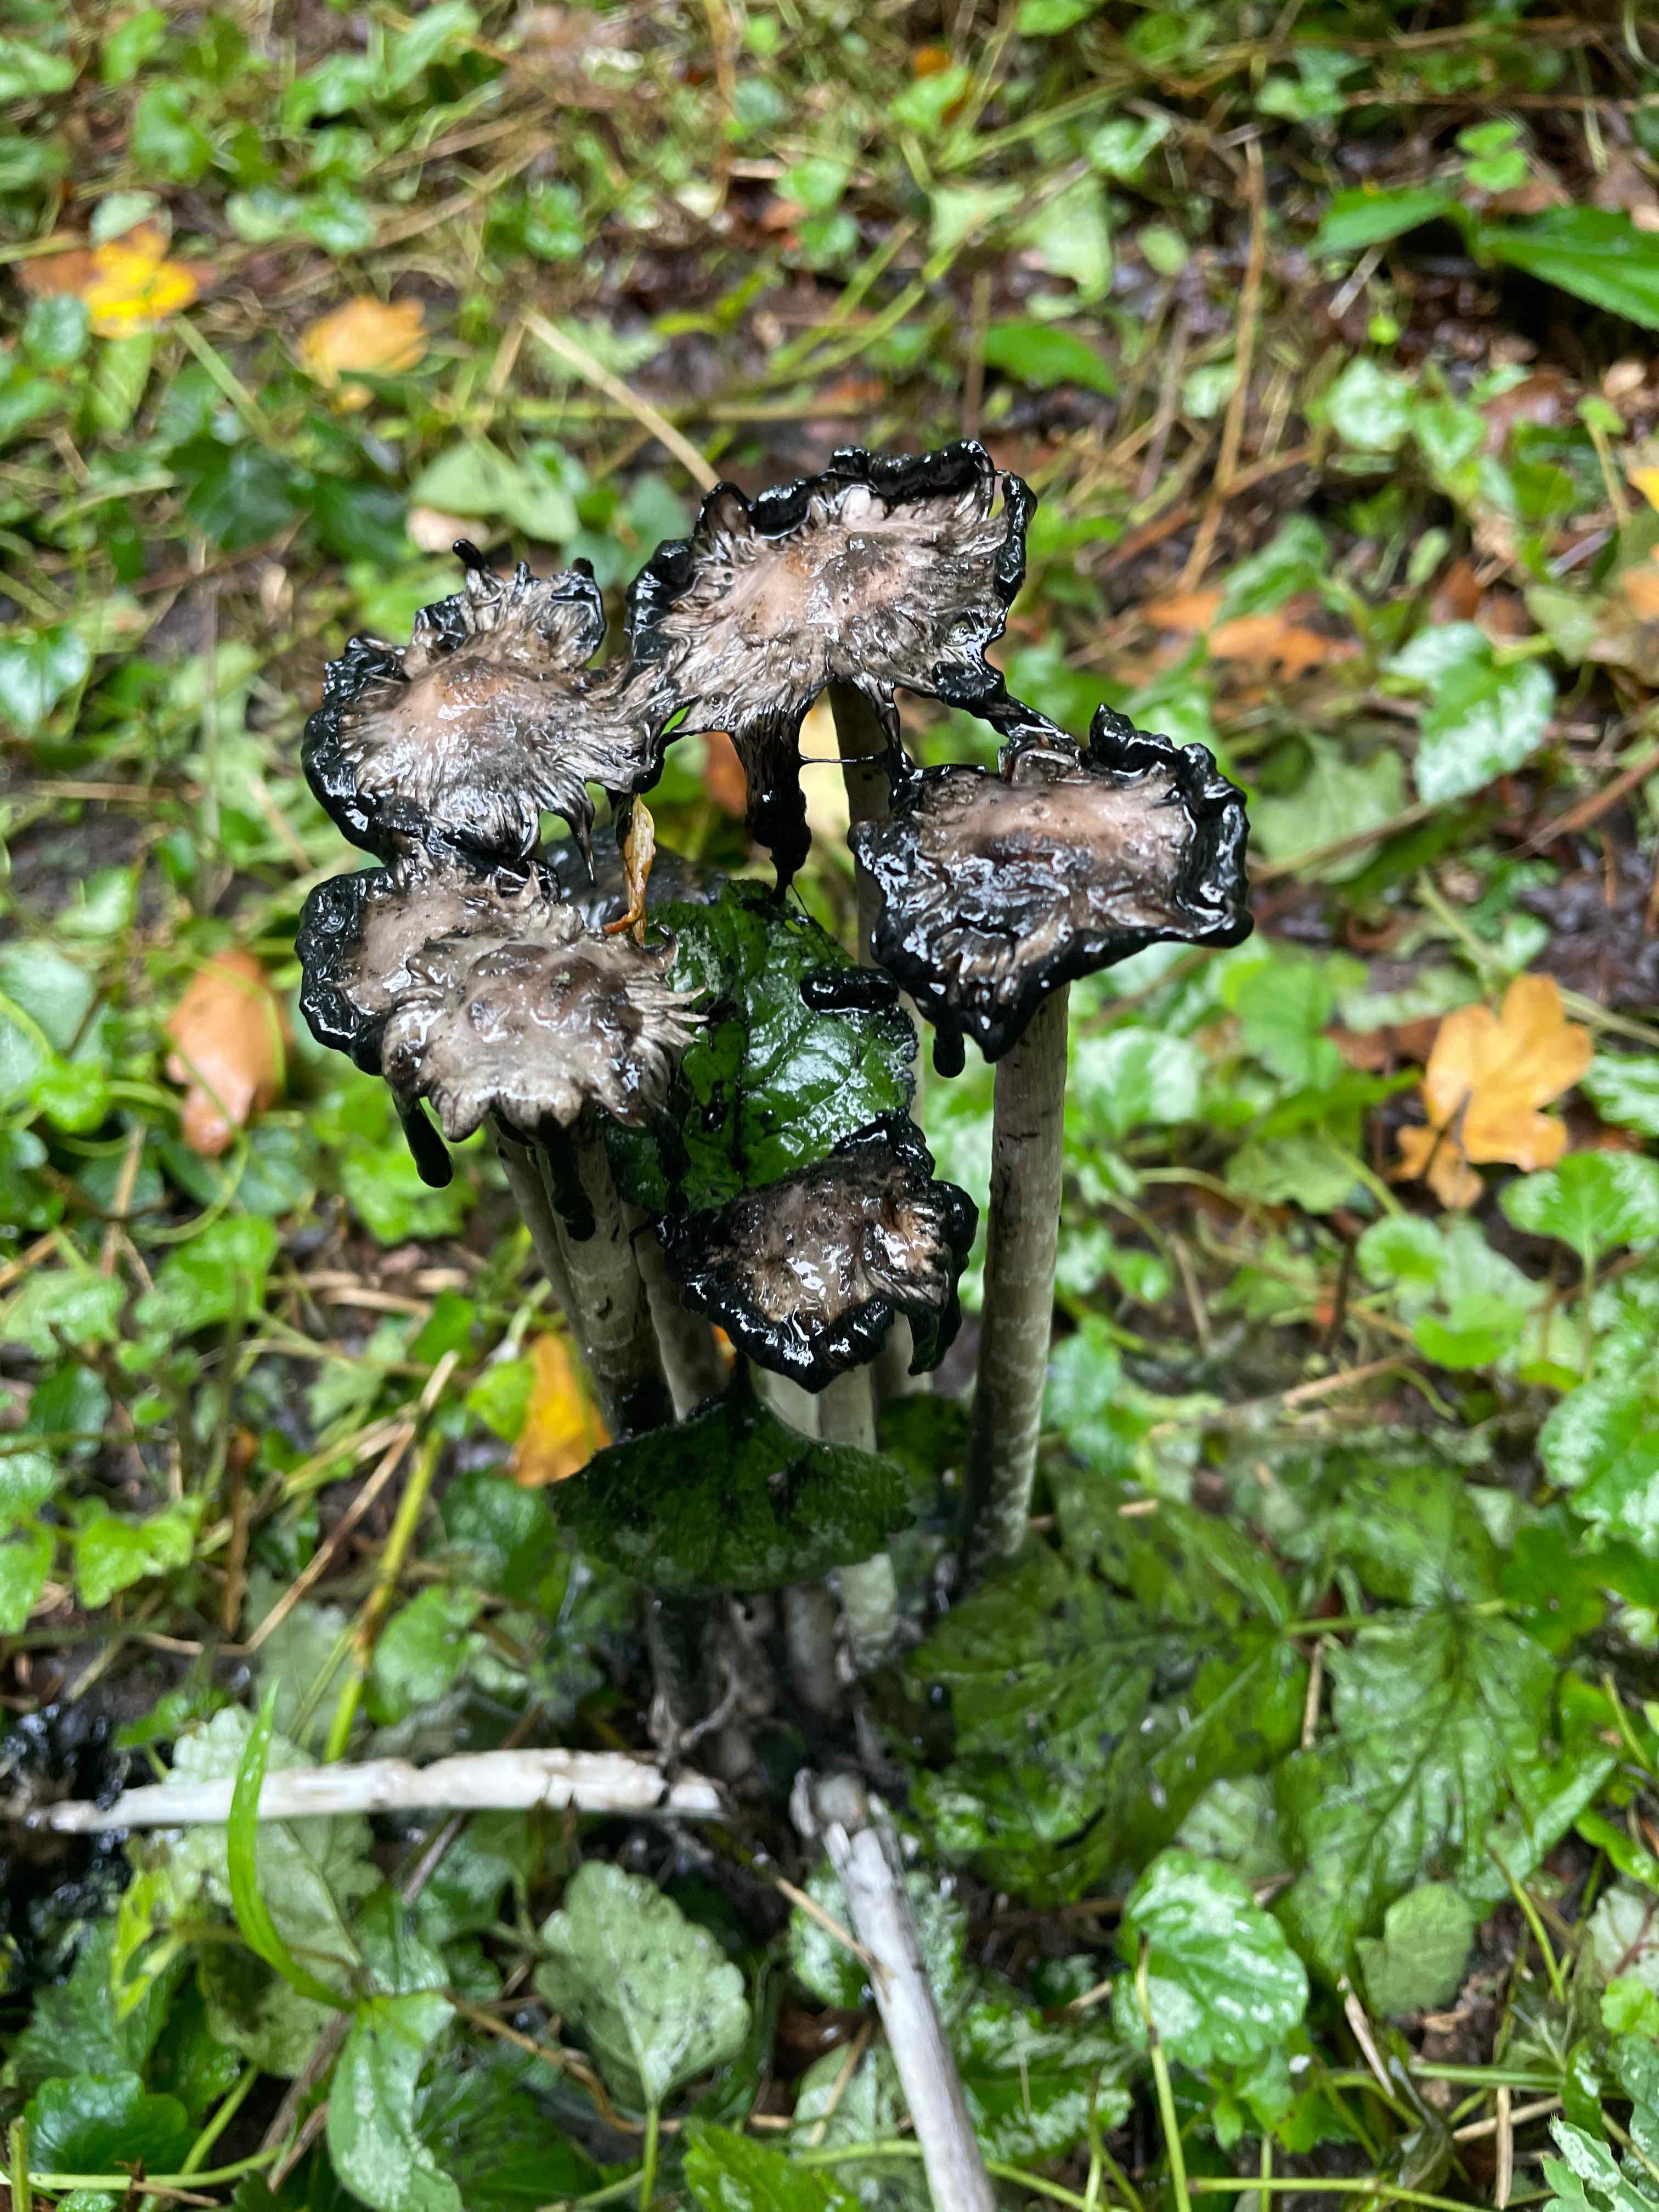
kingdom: Fungi
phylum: Basidiomycota
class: Agaricomycetes
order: Agaricales
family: Agaricaceae
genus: Coprinus
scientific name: Coprinus comatus
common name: stor parykhat
